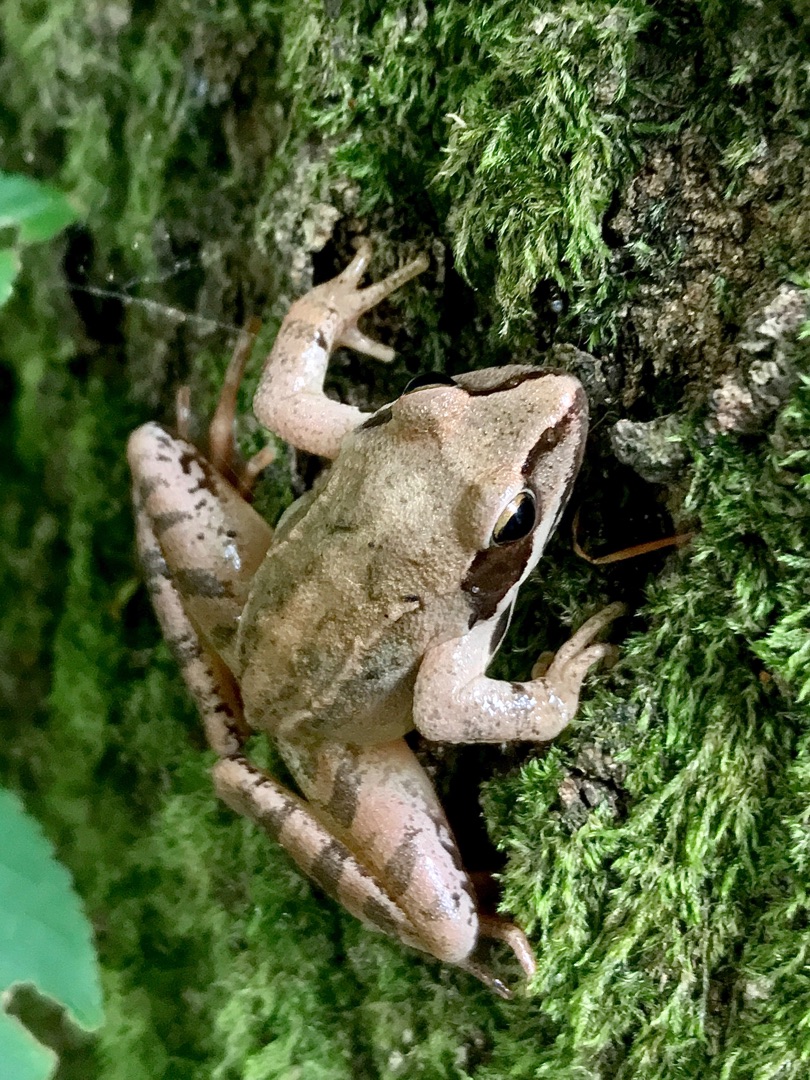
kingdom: Animalia
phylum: Chordata
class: Amphibia
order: Anura
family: Ranidae
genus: Rana
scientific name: Rana dalmatina
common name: Springfrø
